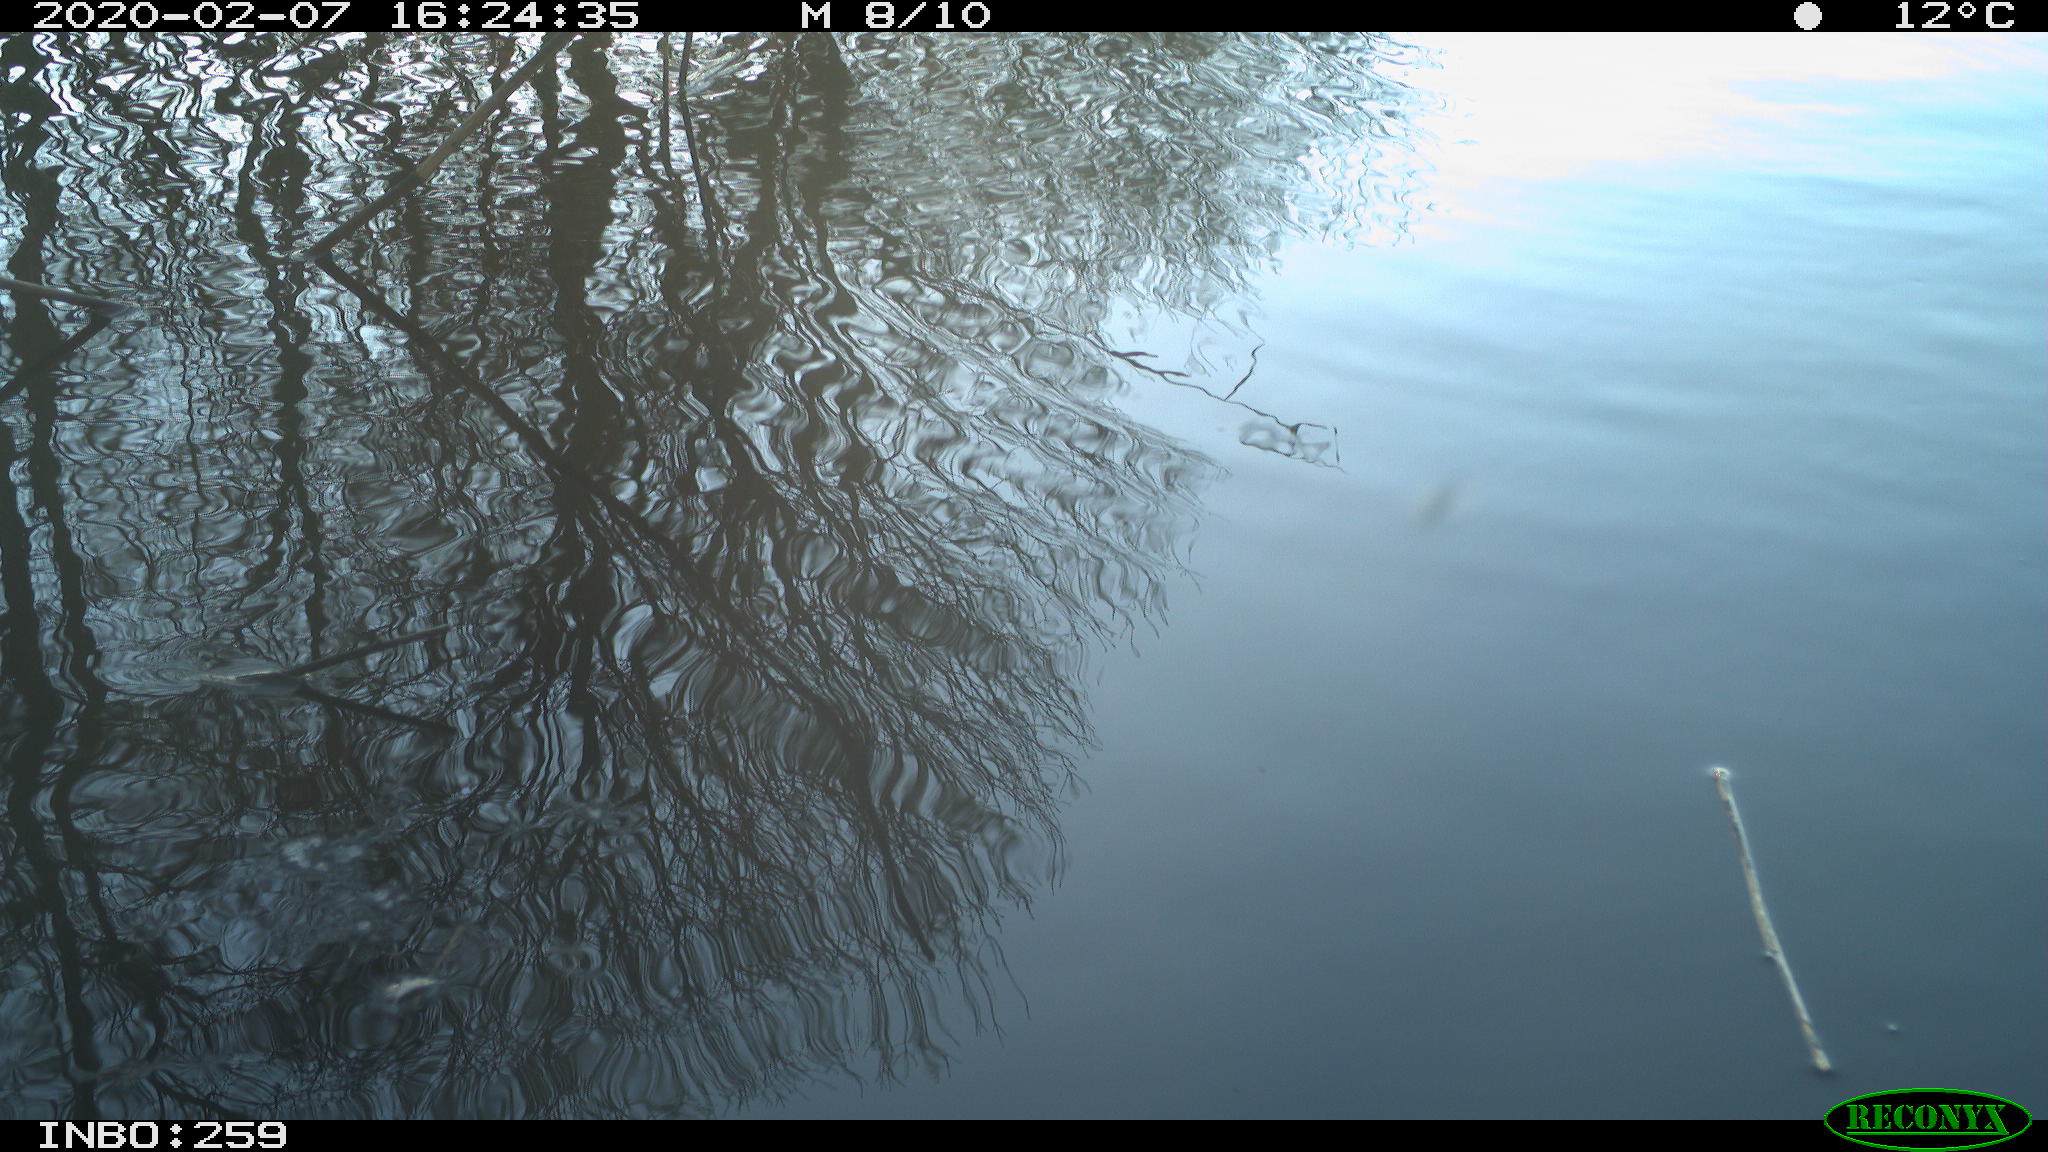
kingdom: Animalia
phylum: Chordata
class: Aves
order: Gruiformes
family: Rallidae
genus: Gallinula
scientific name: Gallinula chloropus
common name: Common moorhen
